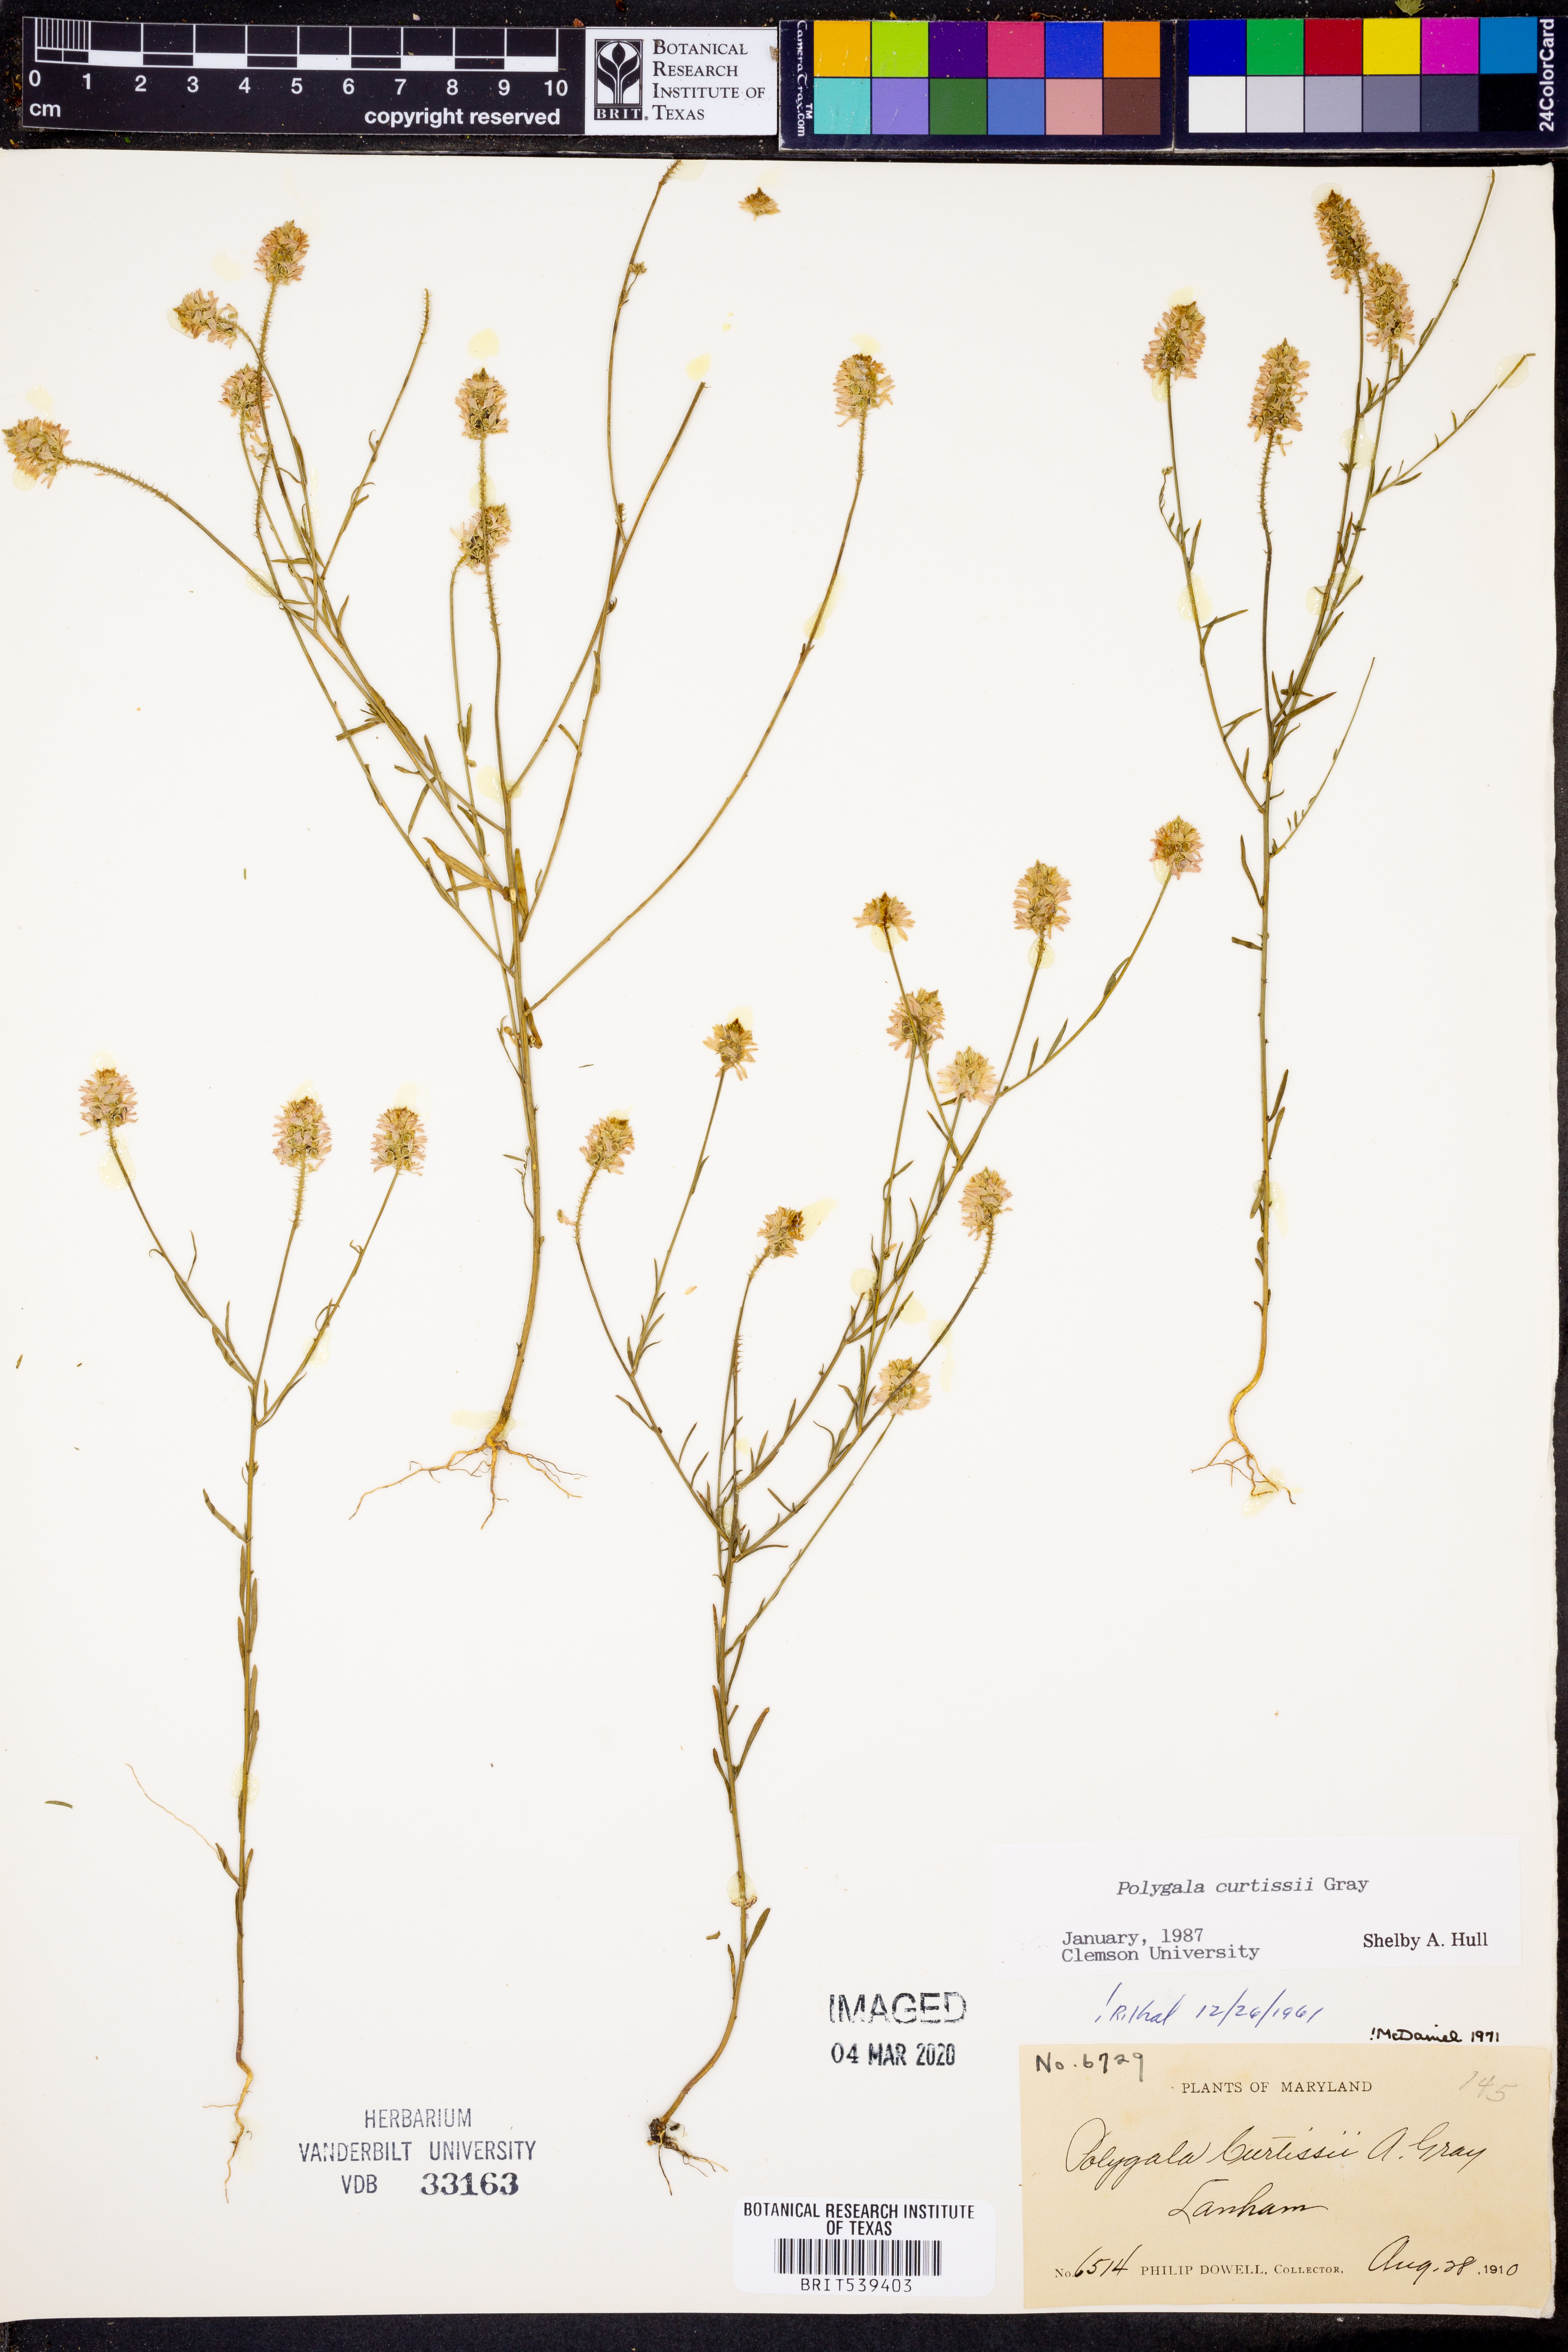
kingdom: Plantae
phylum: Tracheophyta
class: Magnoliopsida
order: Fabales
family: Polygalaceae
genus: Polygala
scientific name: Polygala curtissii
